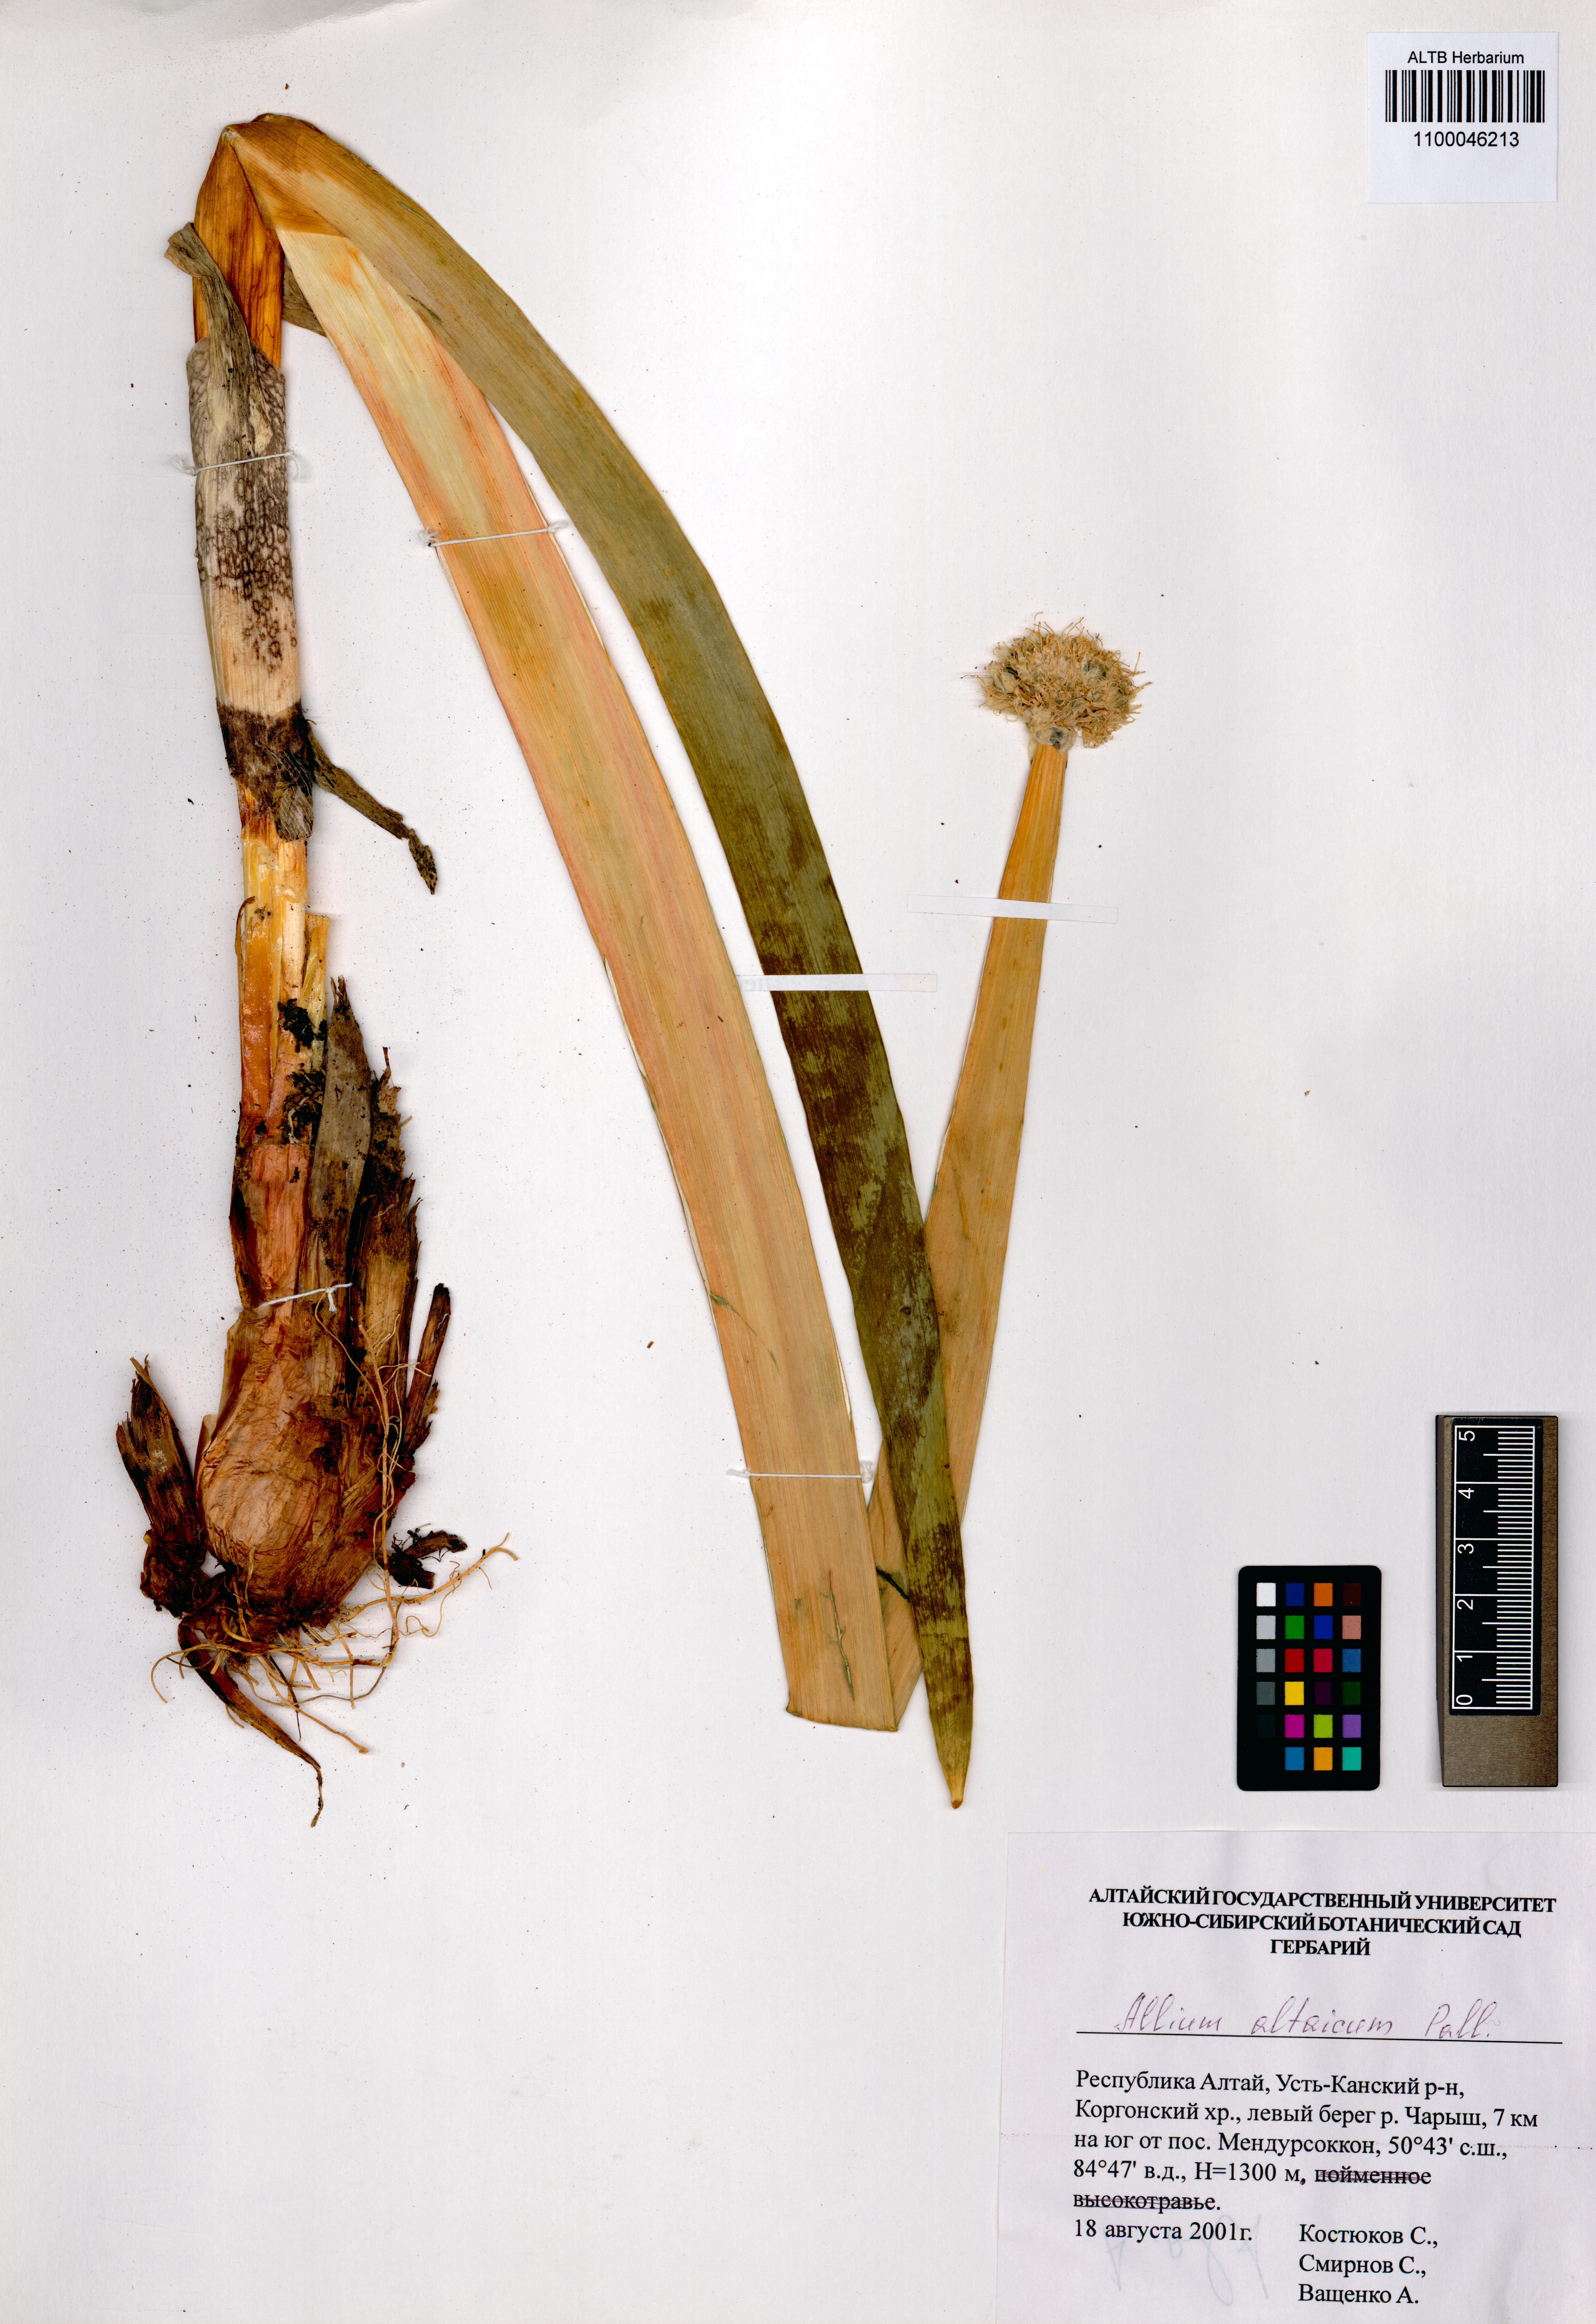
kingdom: Plantae
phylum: Tracheophyta
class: Liliopsida
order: Asparagales
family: Amaryllidaceae
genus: Allium
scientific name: Allium altaicum
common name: Altai onion
